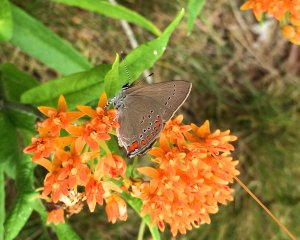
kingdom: Animalia
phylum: Arthropoda
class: Insecta
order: Lepidoptera
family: Lycaenidae
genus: Harkenclenus
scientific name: Harkenclenus titus
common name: Coral Hairstreak
